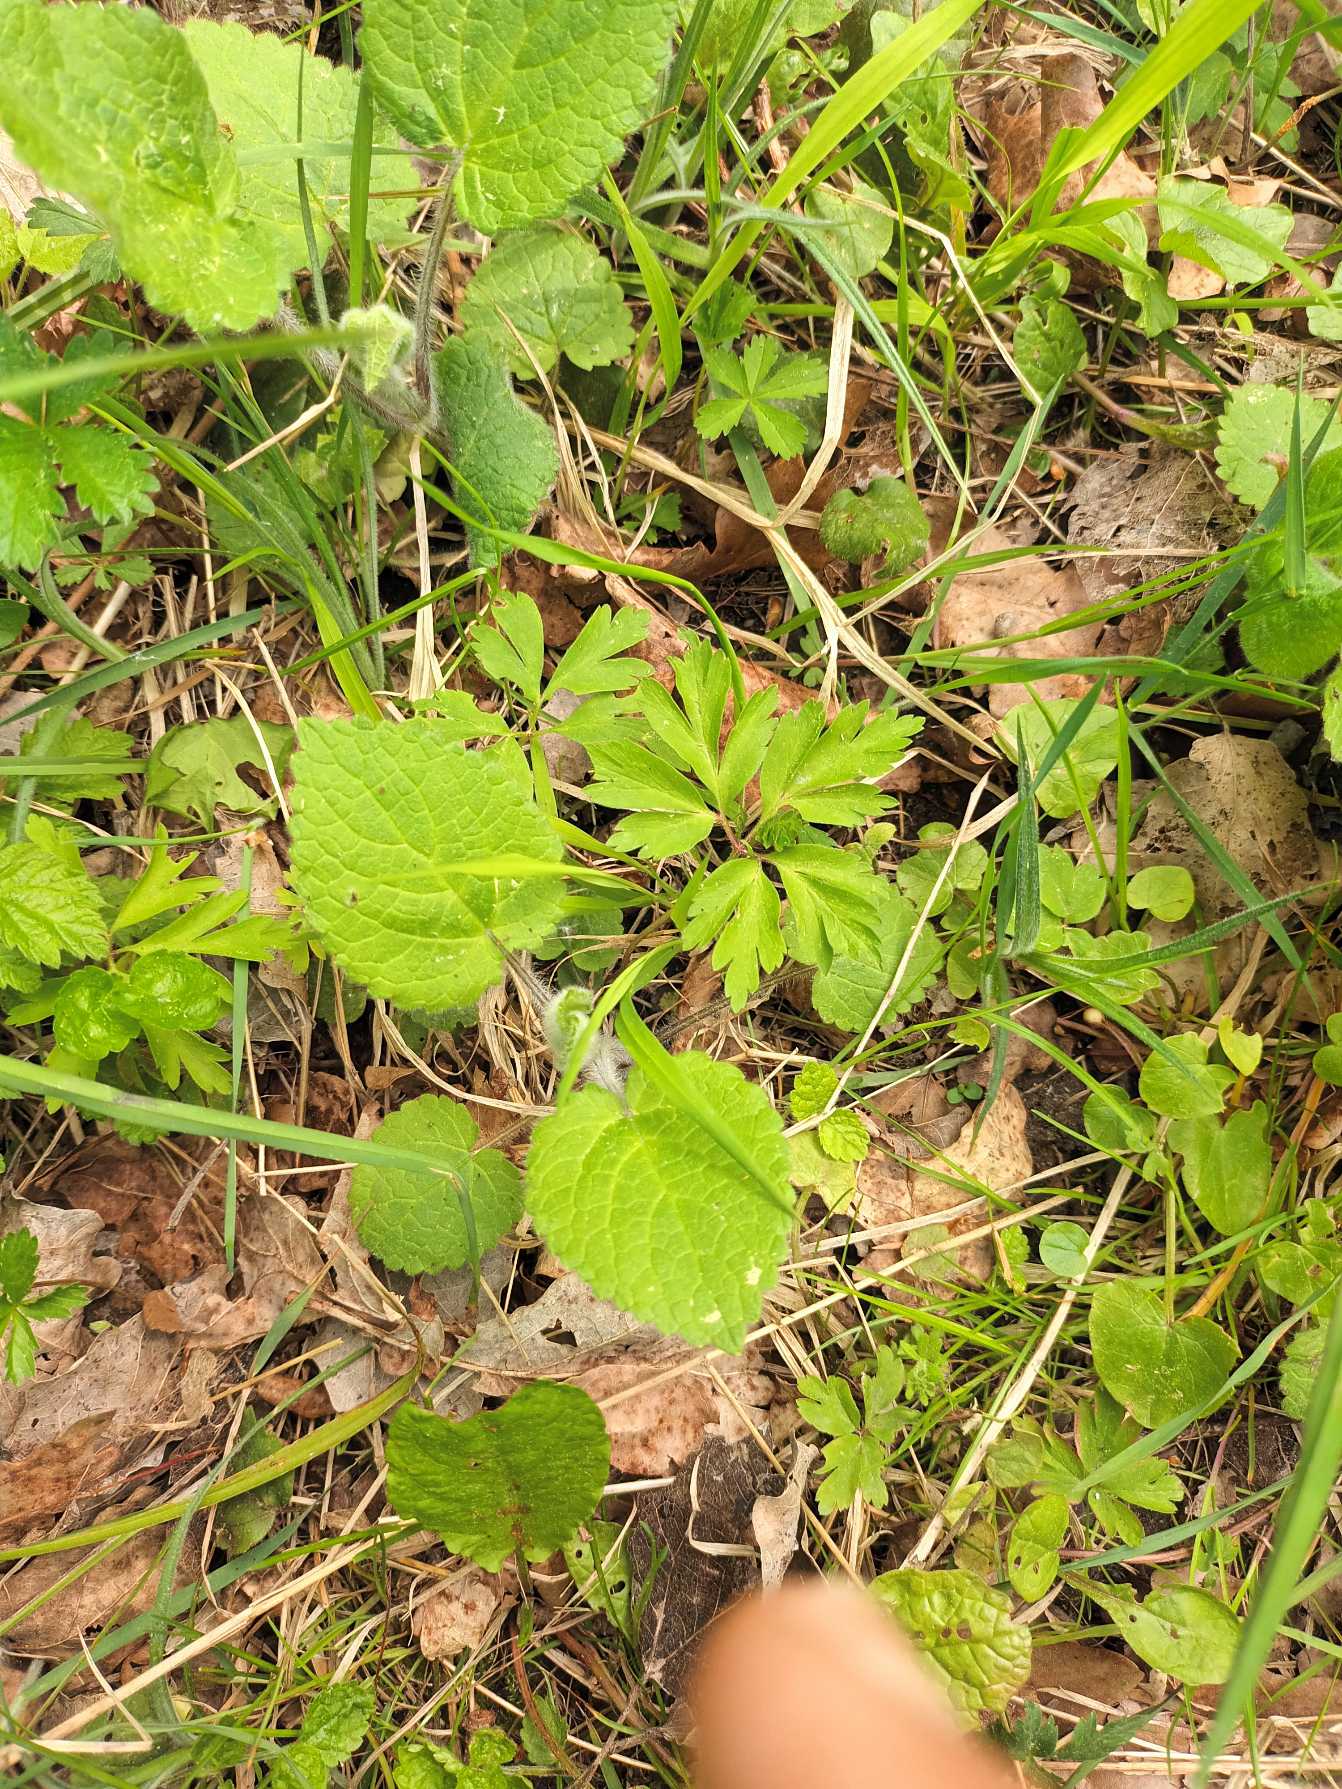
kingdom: Plantae
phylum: Tracheophyta
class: Magnoliopsida
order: Lamiales
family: Lamiaceae
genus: Stachys
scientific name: Stachys sylvatica
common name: Skov-galtetand
